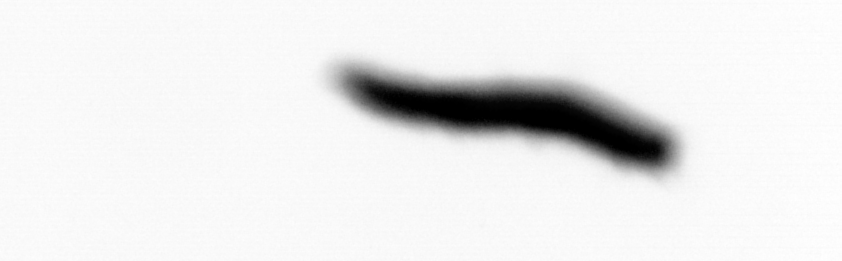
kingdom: Animalia
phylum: Annelida
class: Polychaeta
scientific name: Polychaeta
